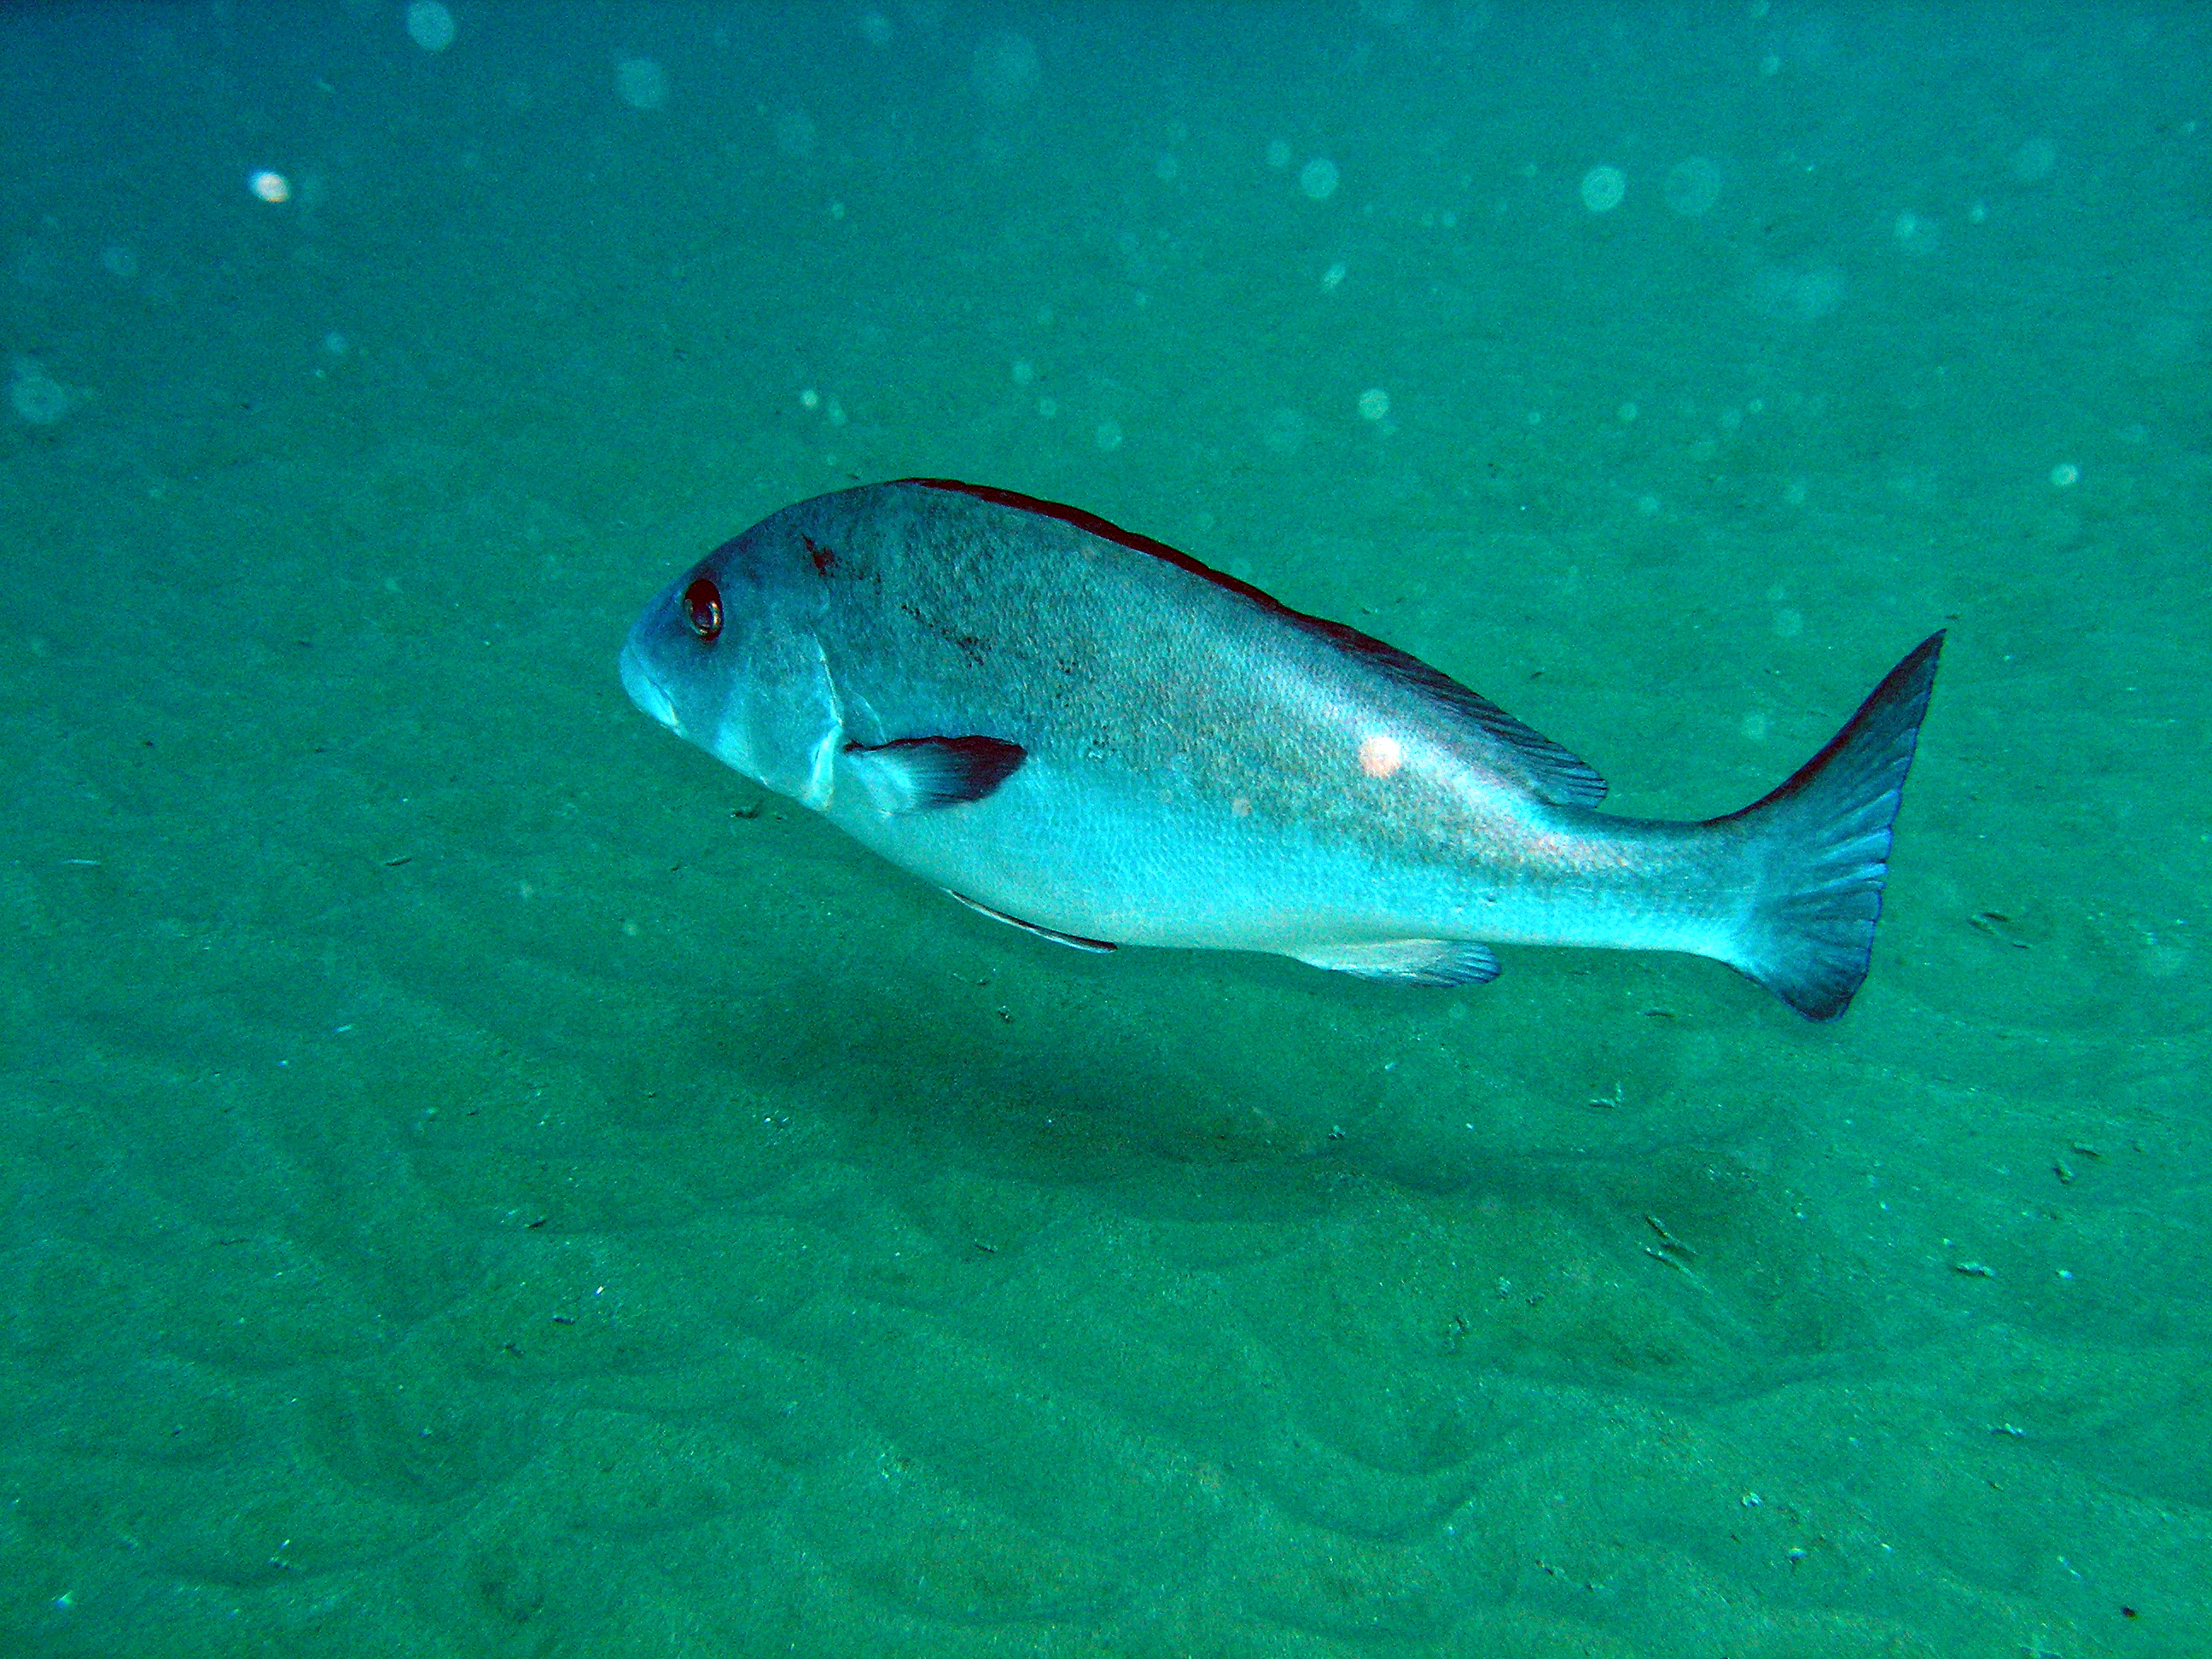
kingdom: Animalia
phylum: Chordata
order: Perciformes
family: Haemulidae
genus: Plectorhinchus
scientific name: Plectorhinchus chubbi
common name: Dusky rubberlip
